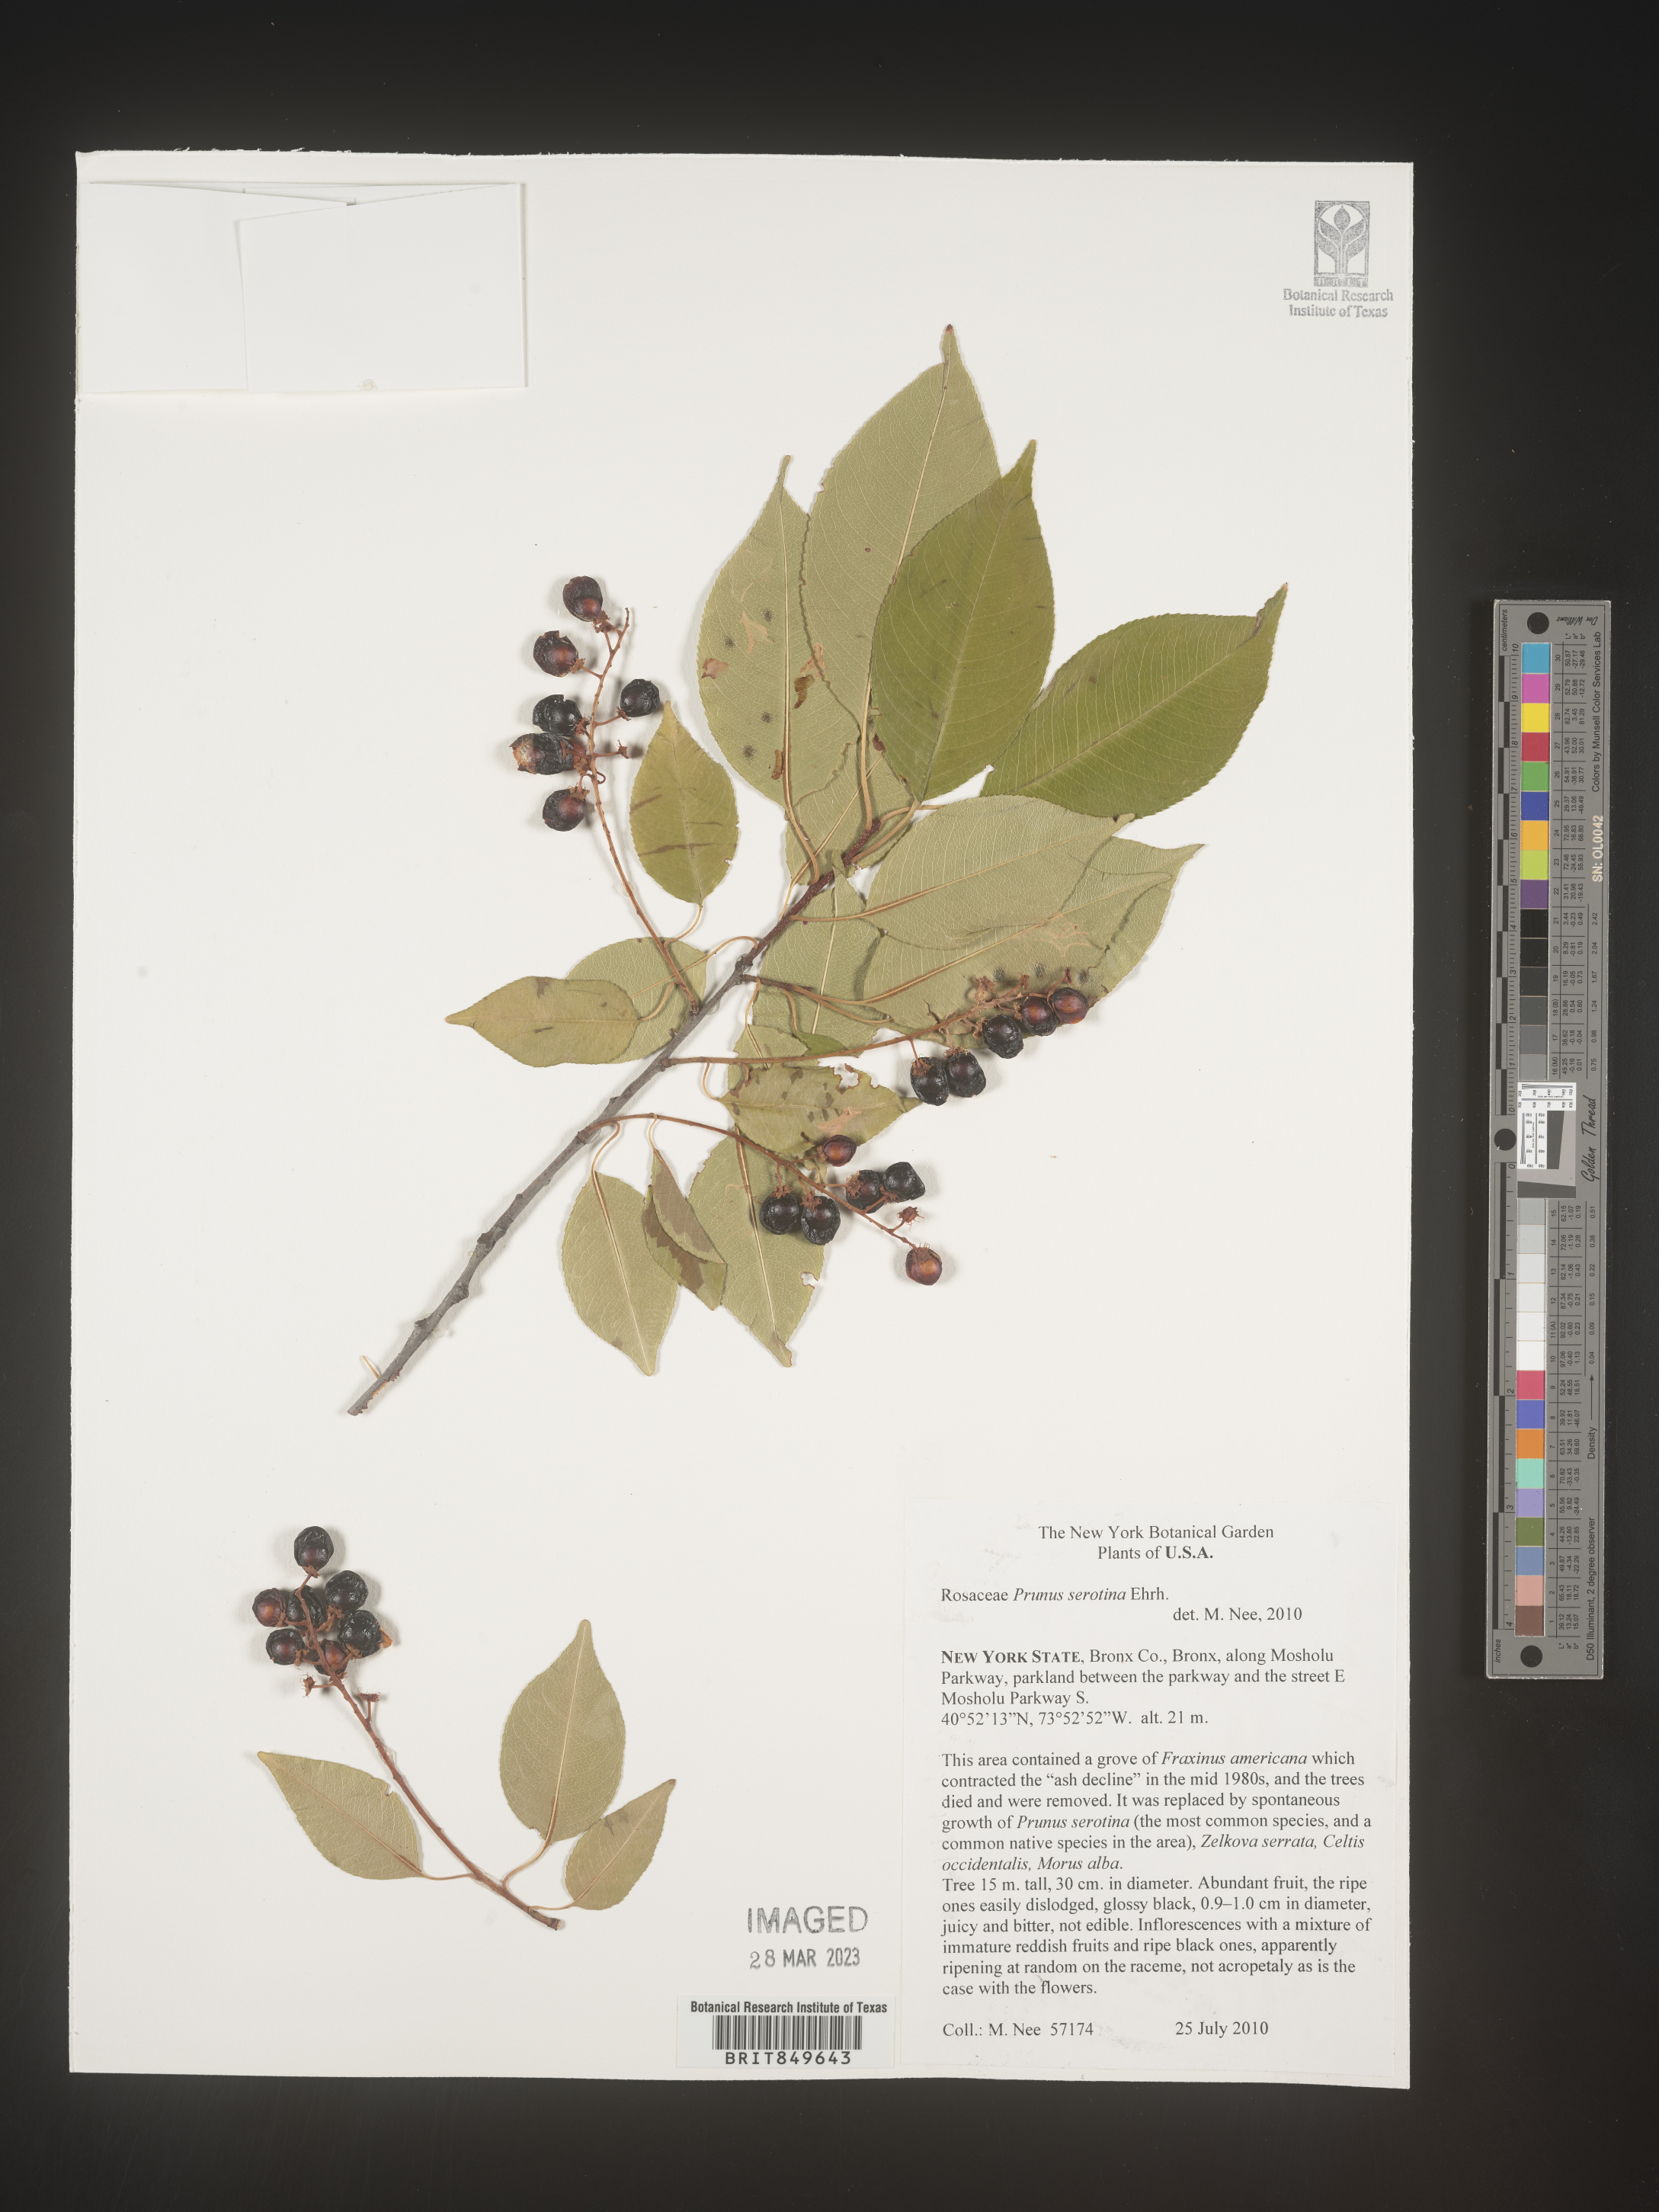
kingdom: Plantae
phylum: Tracheophyta
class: Magnoliopsida
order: Rosales
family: Rosaceae
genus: Prunus
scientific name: Prunus serotina
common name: Black cherry
